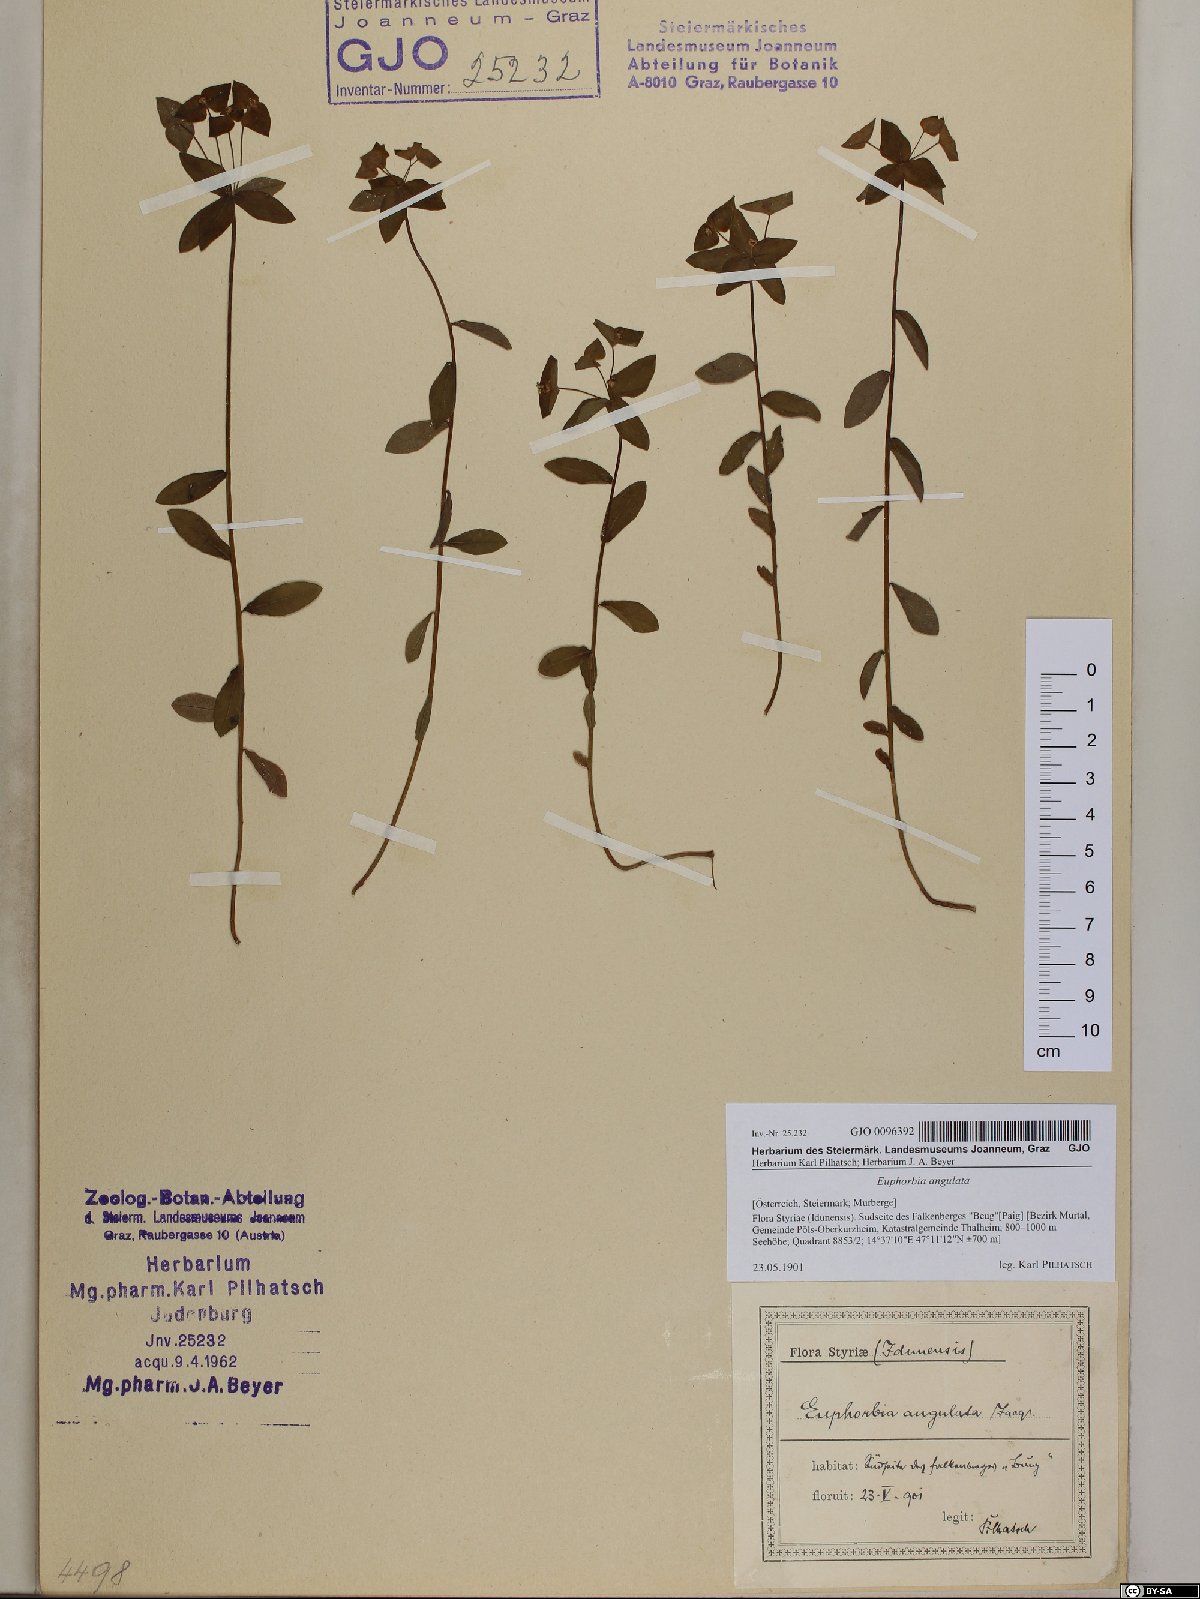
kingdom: Plantae
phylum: Tracheophyta
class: Magnoliopsida
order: Malpighiales
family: Euphorbiaceae
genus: Euphorbia
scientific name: Euphorbia angulata
